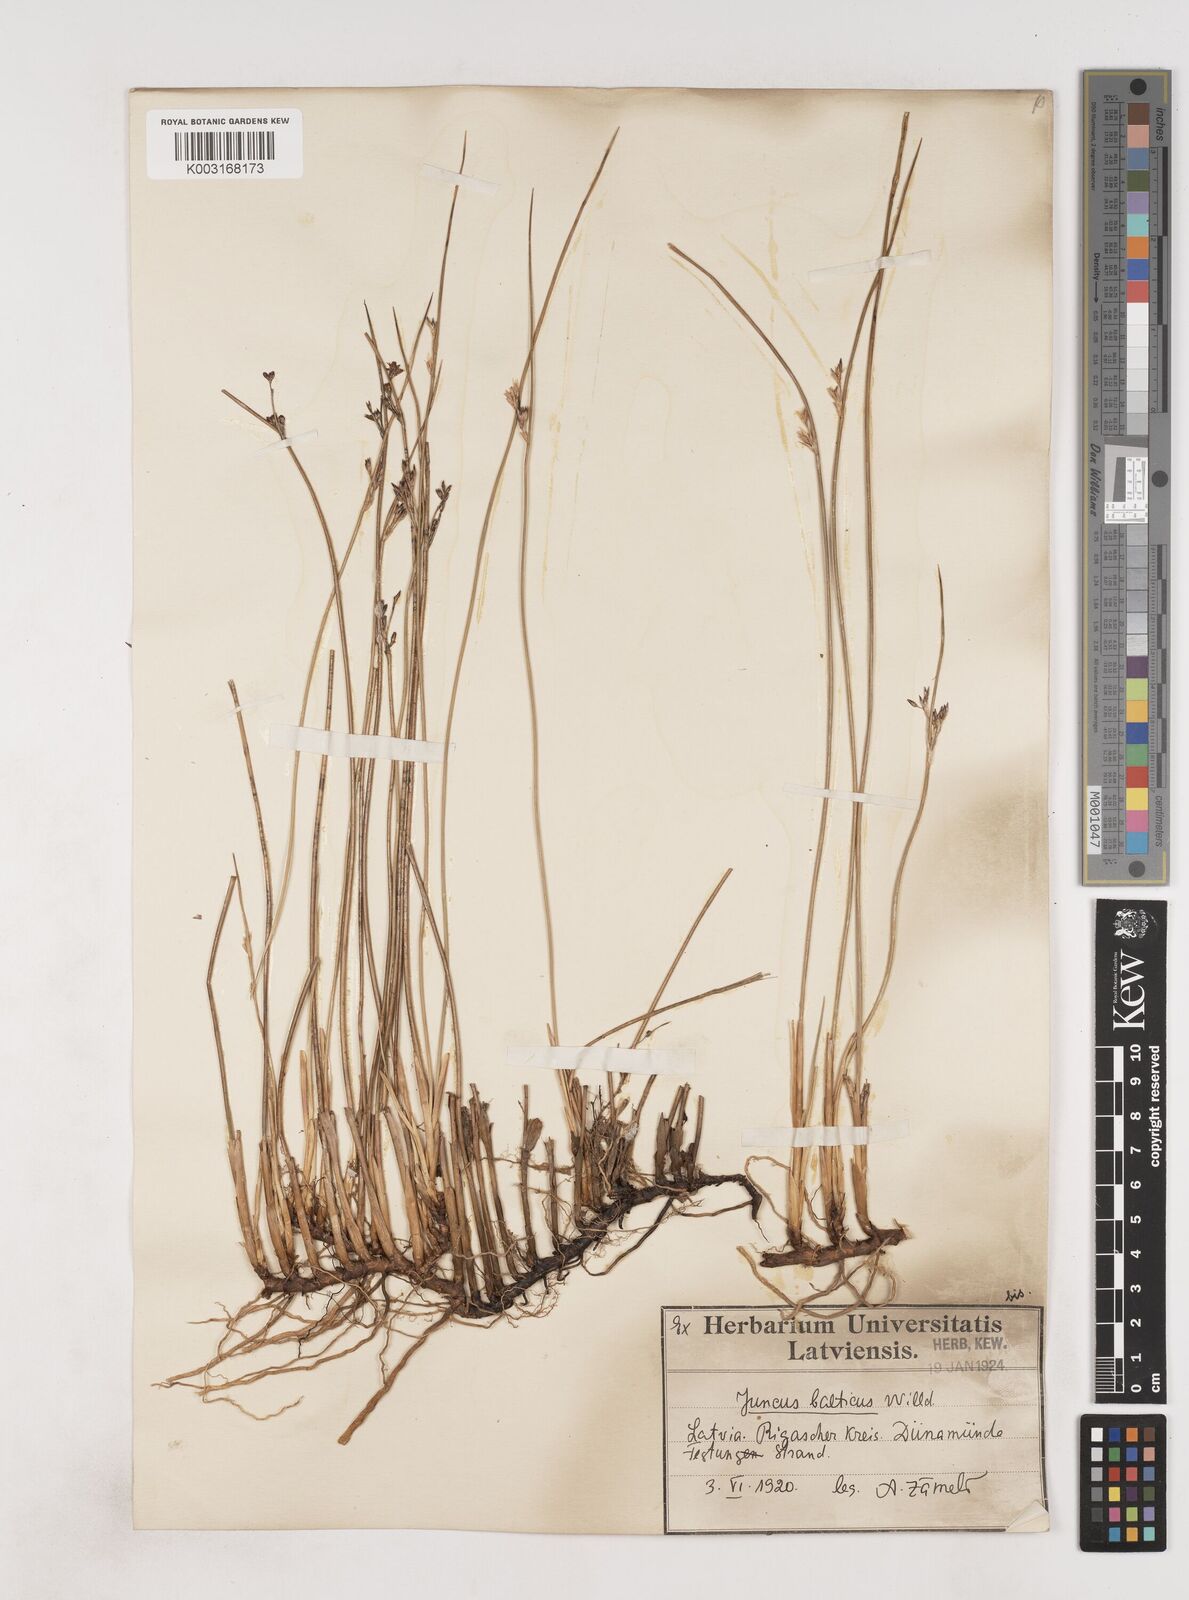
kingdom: Plantae
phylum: Tracheophyta
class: Liliopsida
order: Poales
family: Juncaceae
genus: Juncus
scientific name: Juncus balticus
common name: Baltic rush
